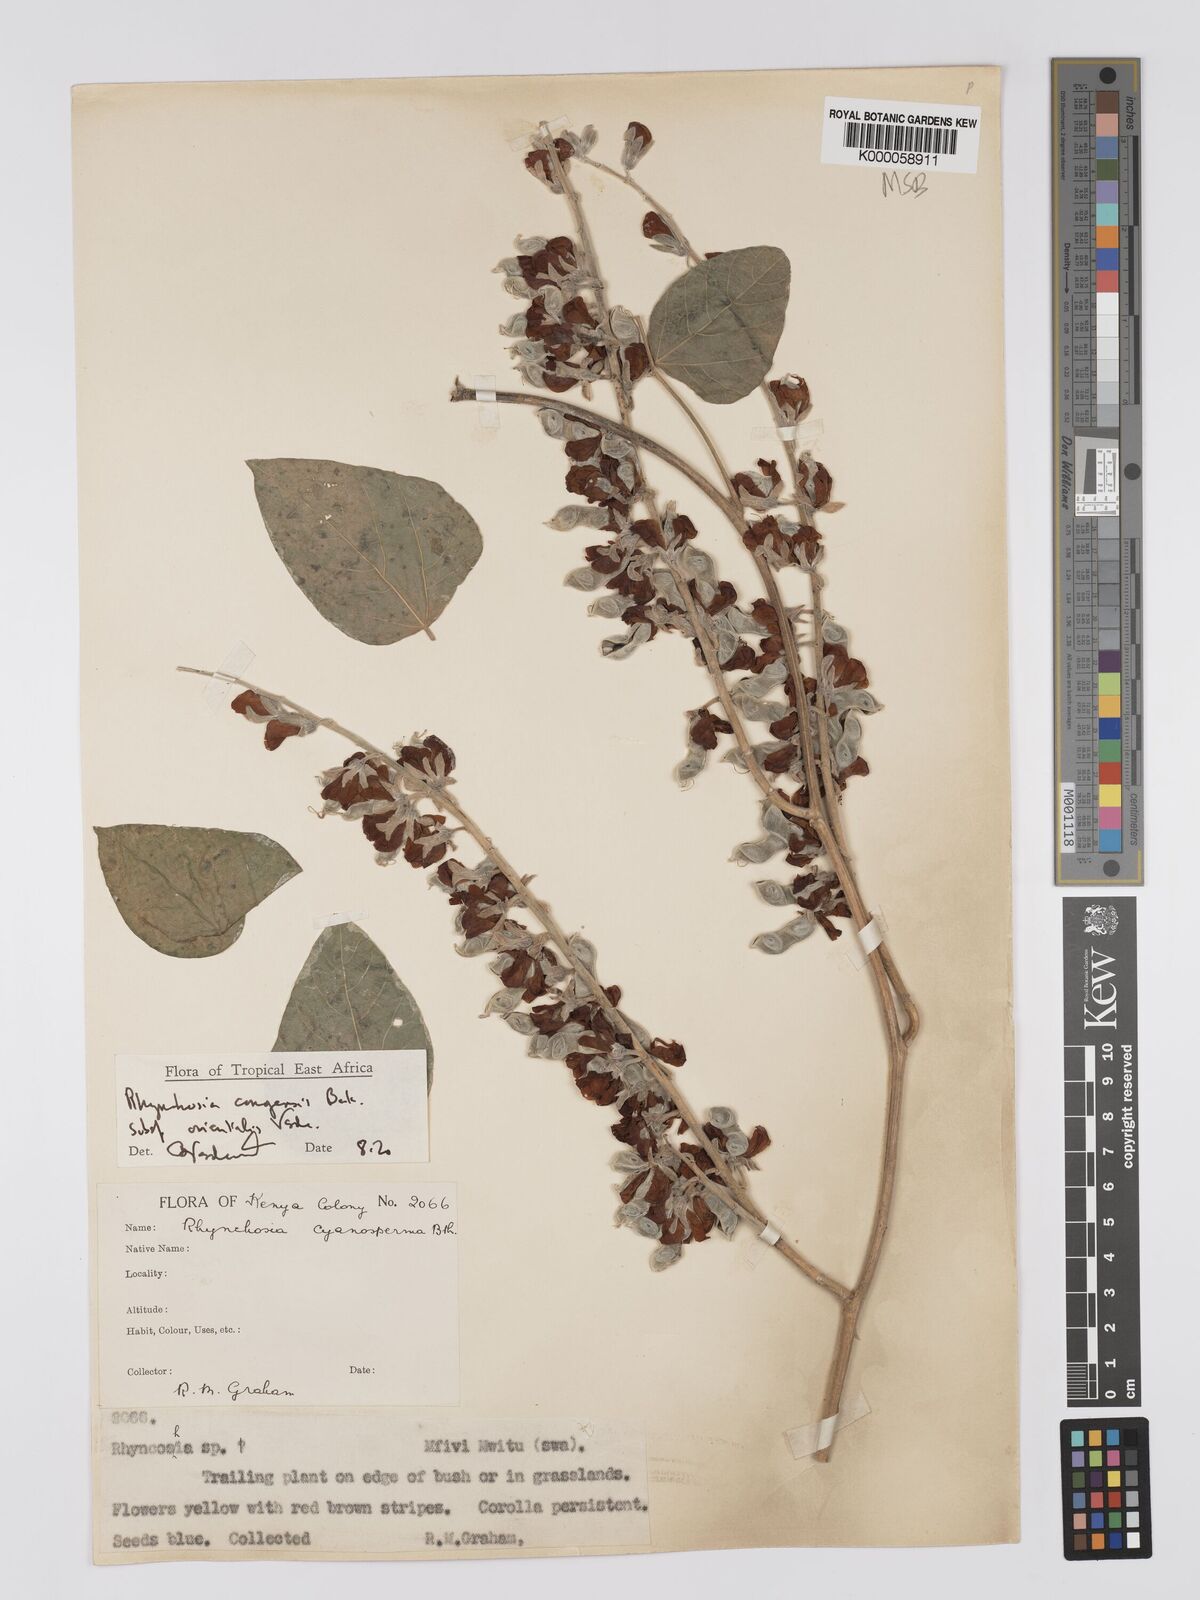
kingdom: Plantae
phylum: Tracheophyta
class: Magnoliopsida
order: Fabales
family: Fabaceae
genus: Rhynchosia
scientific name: Rhynchosia congensis
